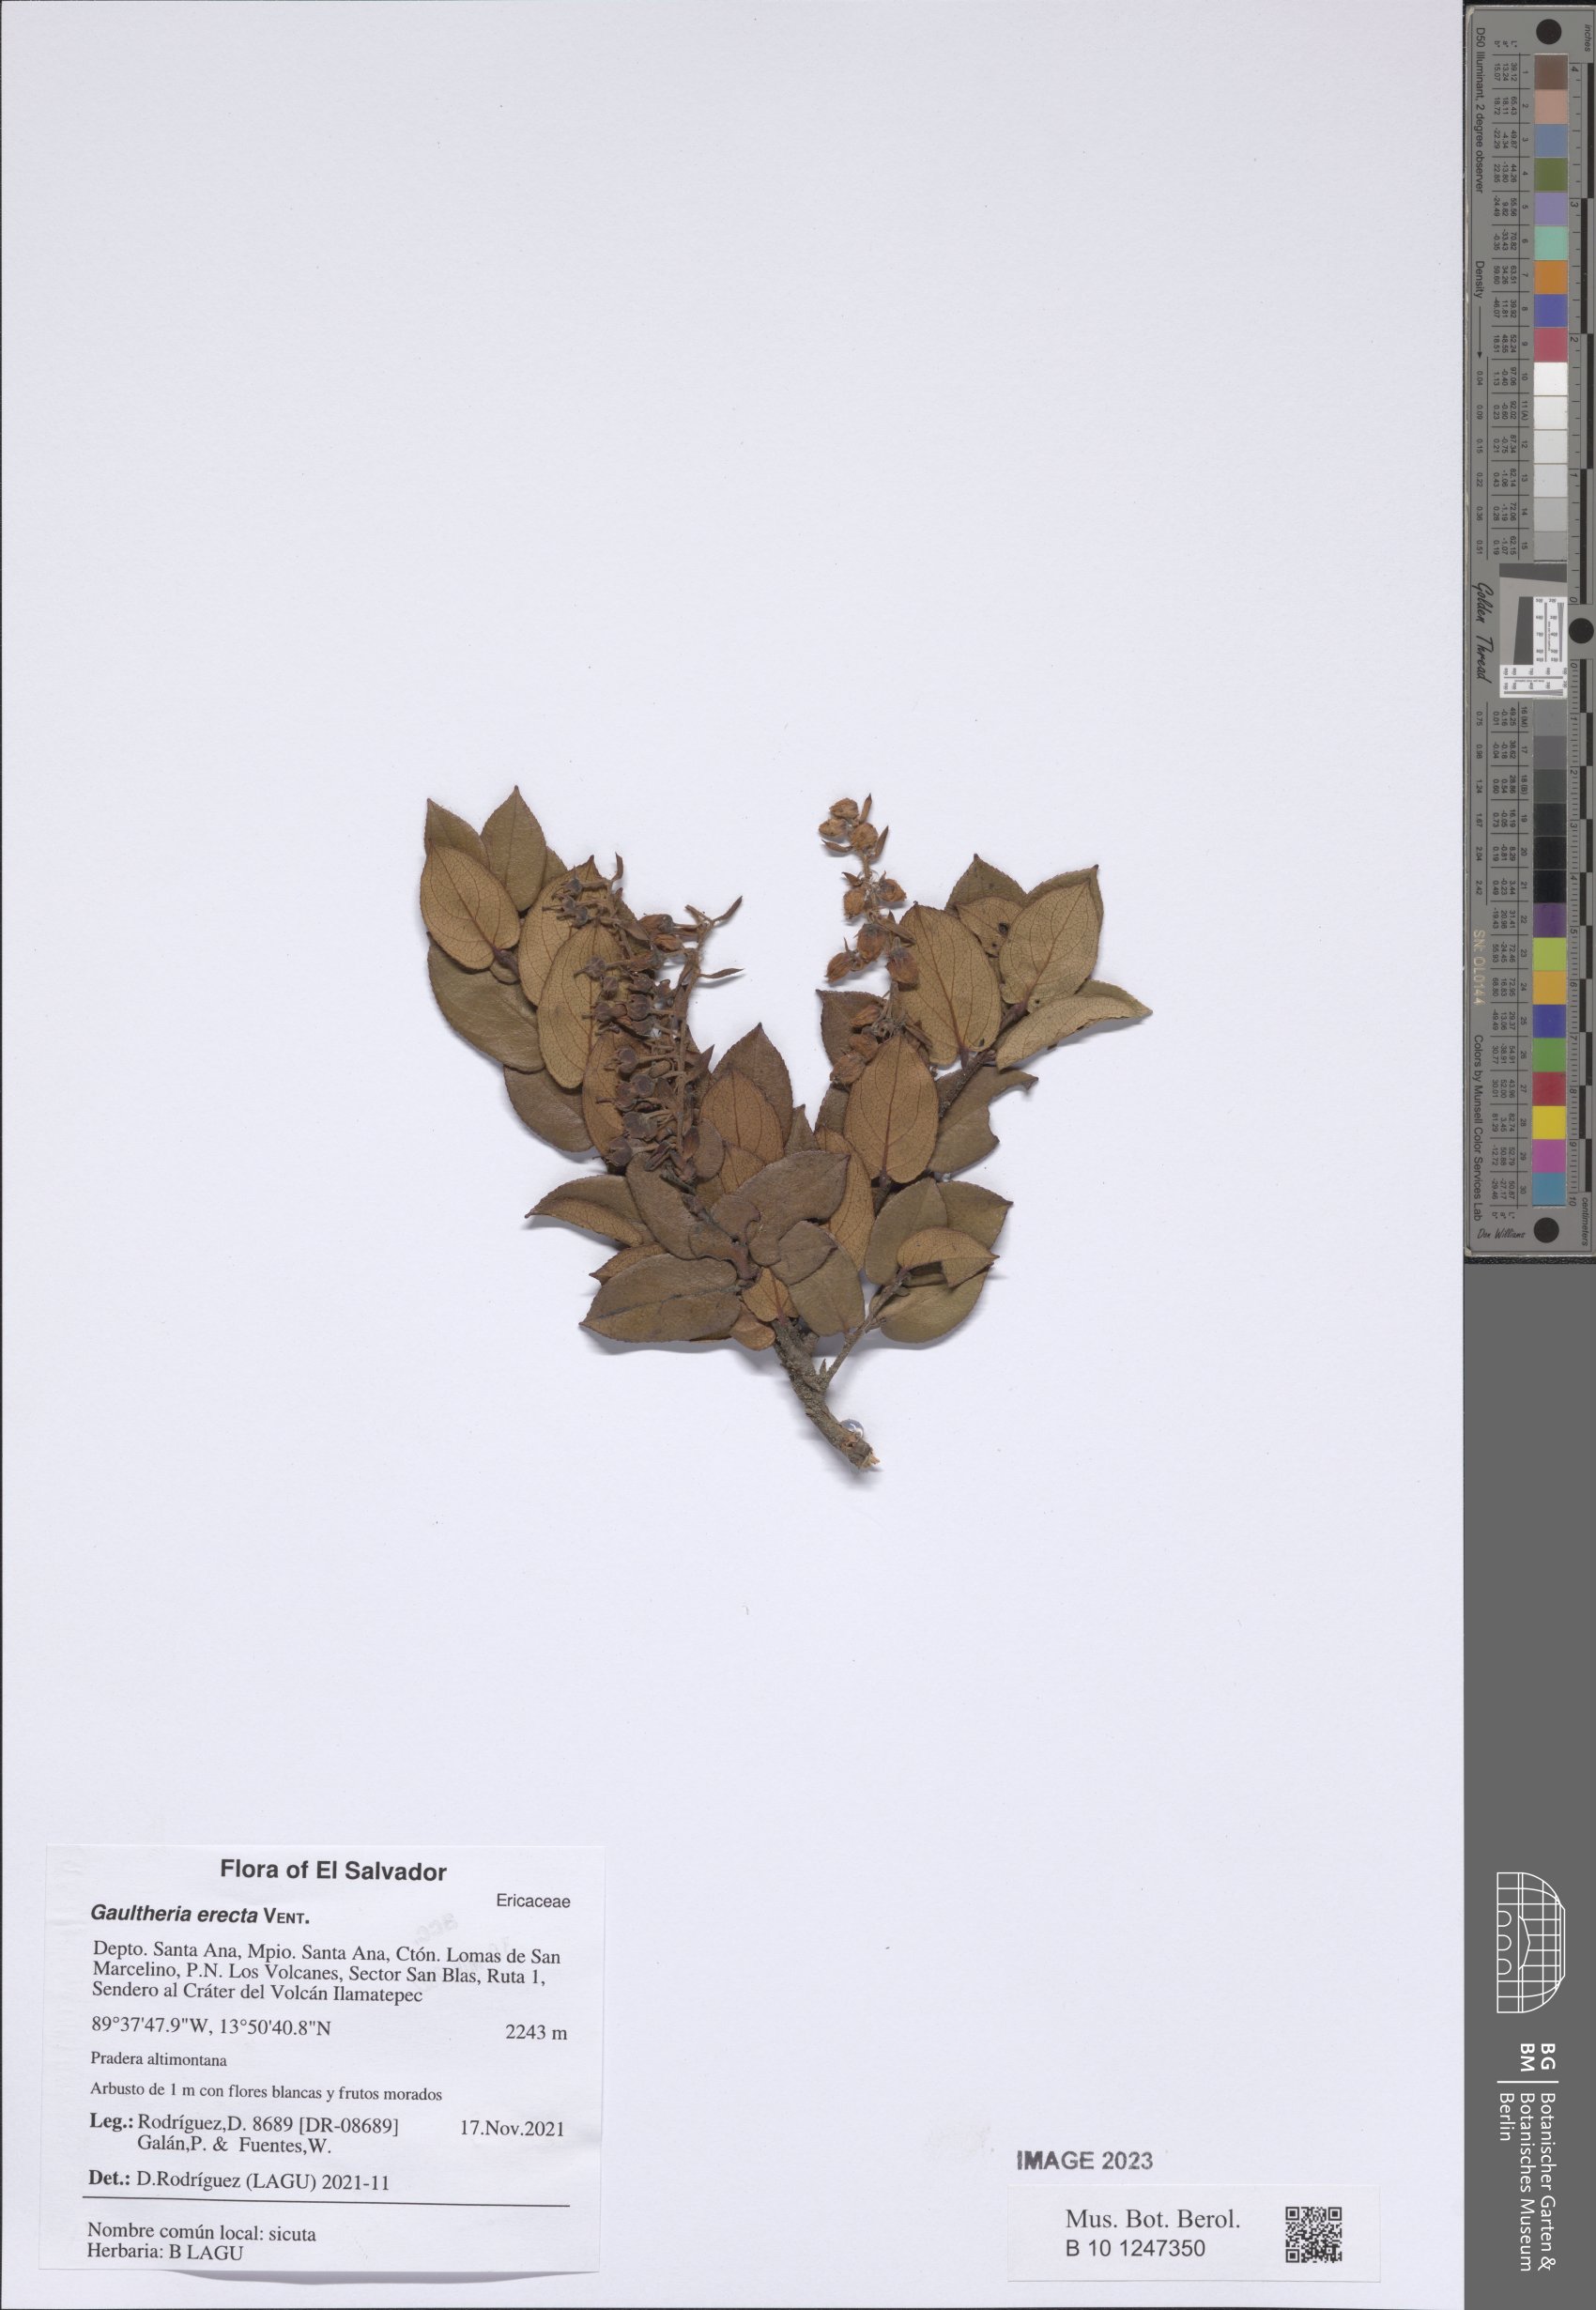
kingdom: Plantae
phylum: Tracheophyta
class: Magnoliopsida
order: Ericales
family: Ericaceae
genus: Gaultheria
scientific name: Gaultheria erecta
